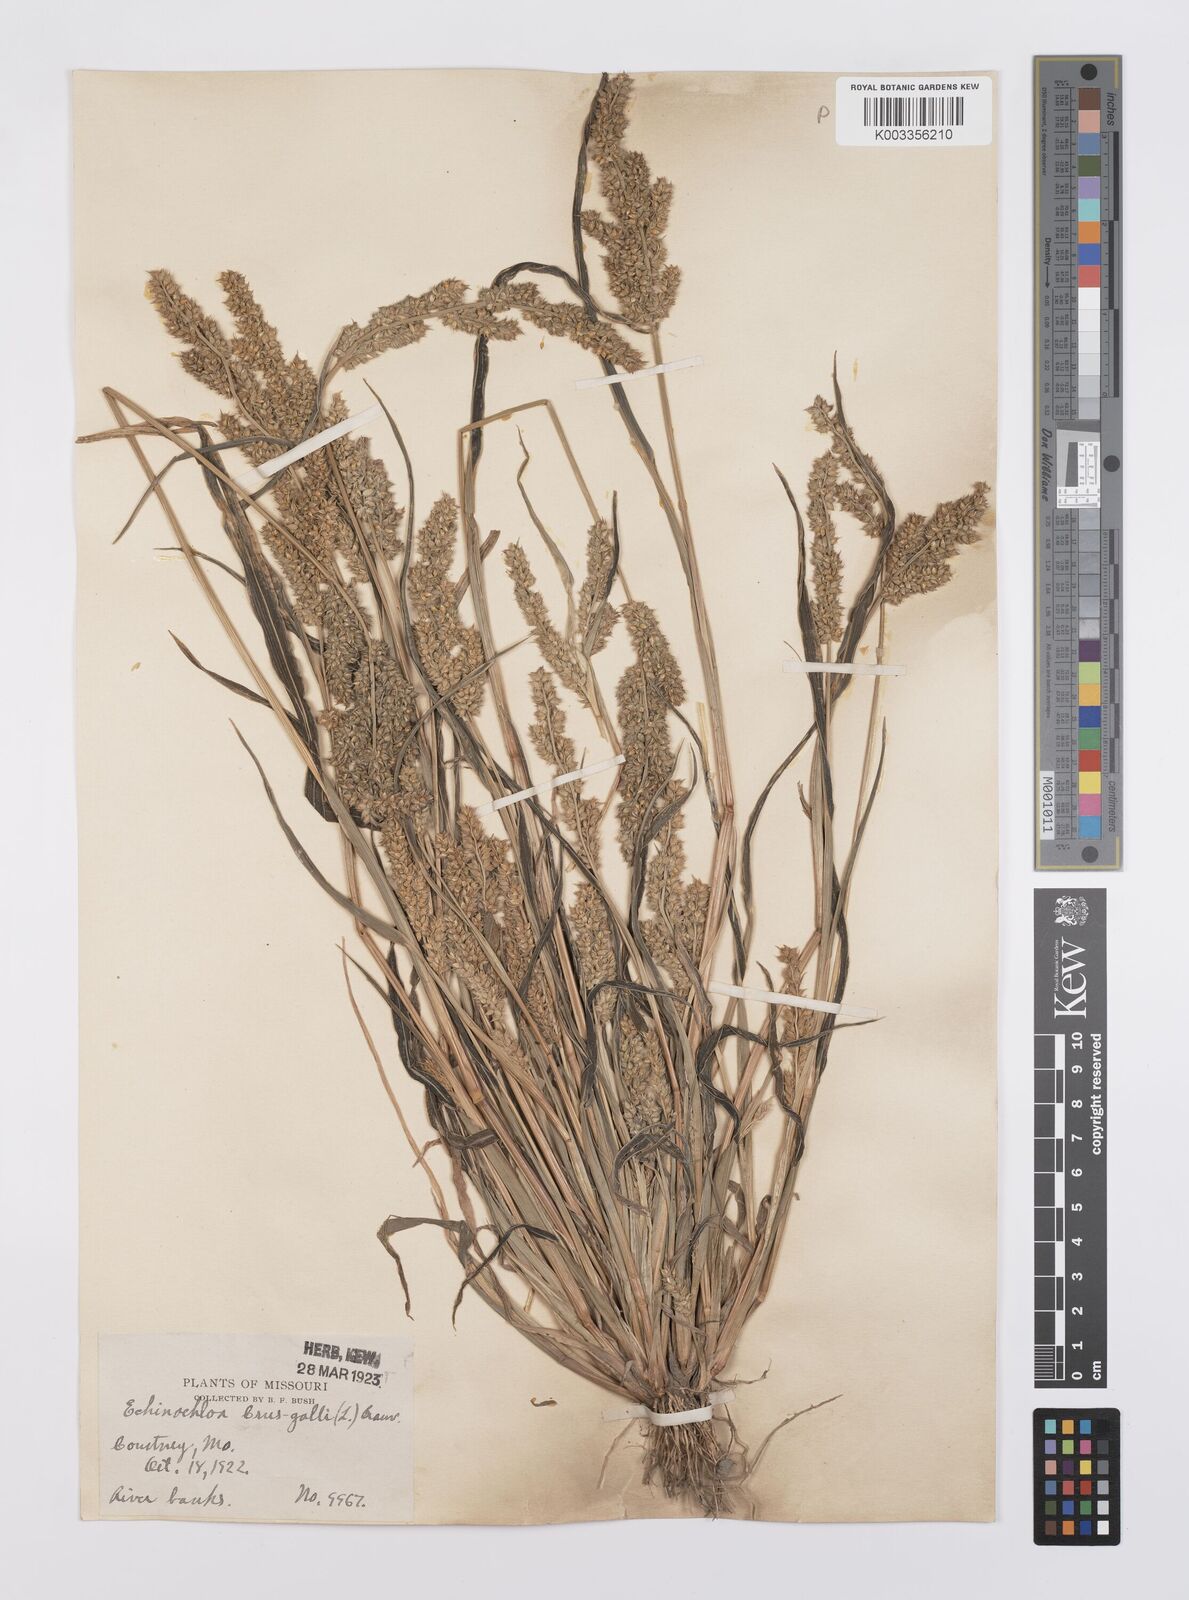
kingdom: Plantae
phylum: Tracheophyta
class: Liliopsida
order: Poales
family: Poaceae
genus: Echinochloa
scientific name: Echinochloa crus-galli
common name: Cockspur
